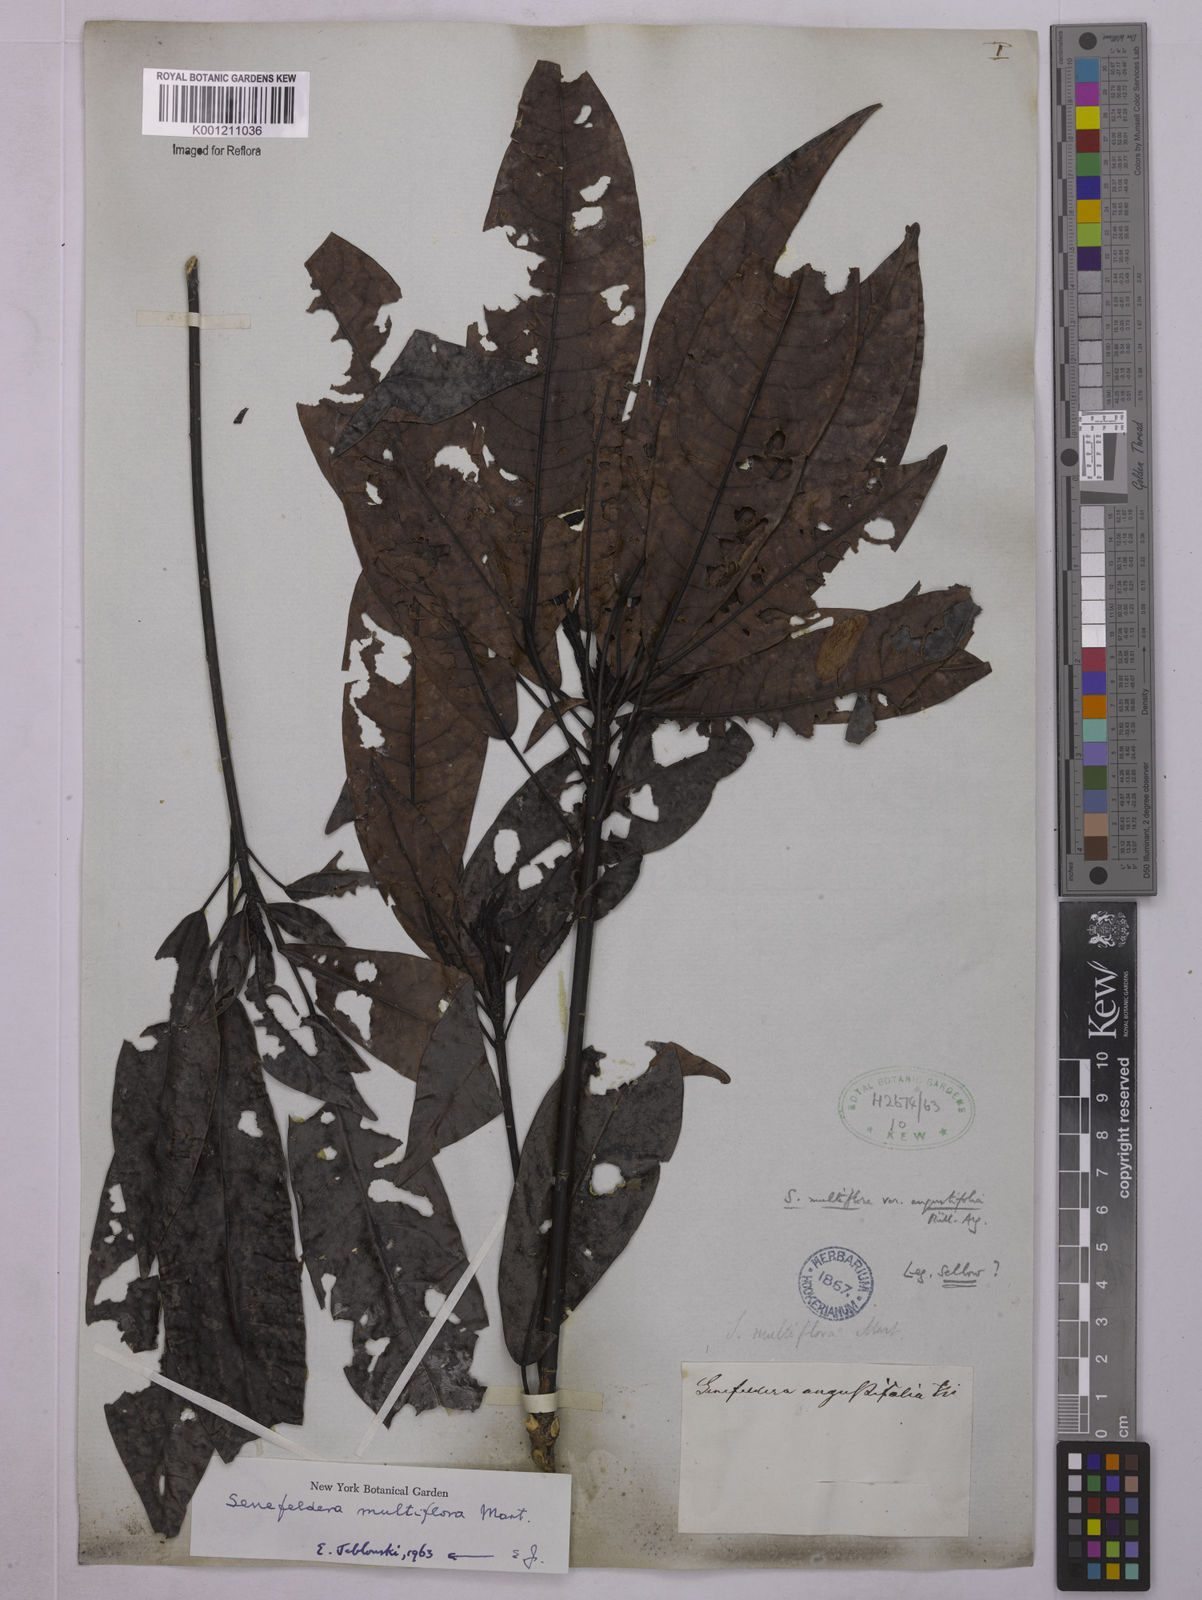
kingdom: Plantae
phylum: Tracheophyta
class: Magnoliopsida
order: Malpighiales
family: Euphorbiaceae
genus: Senefeldera
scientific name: Senefeldera verticillata
